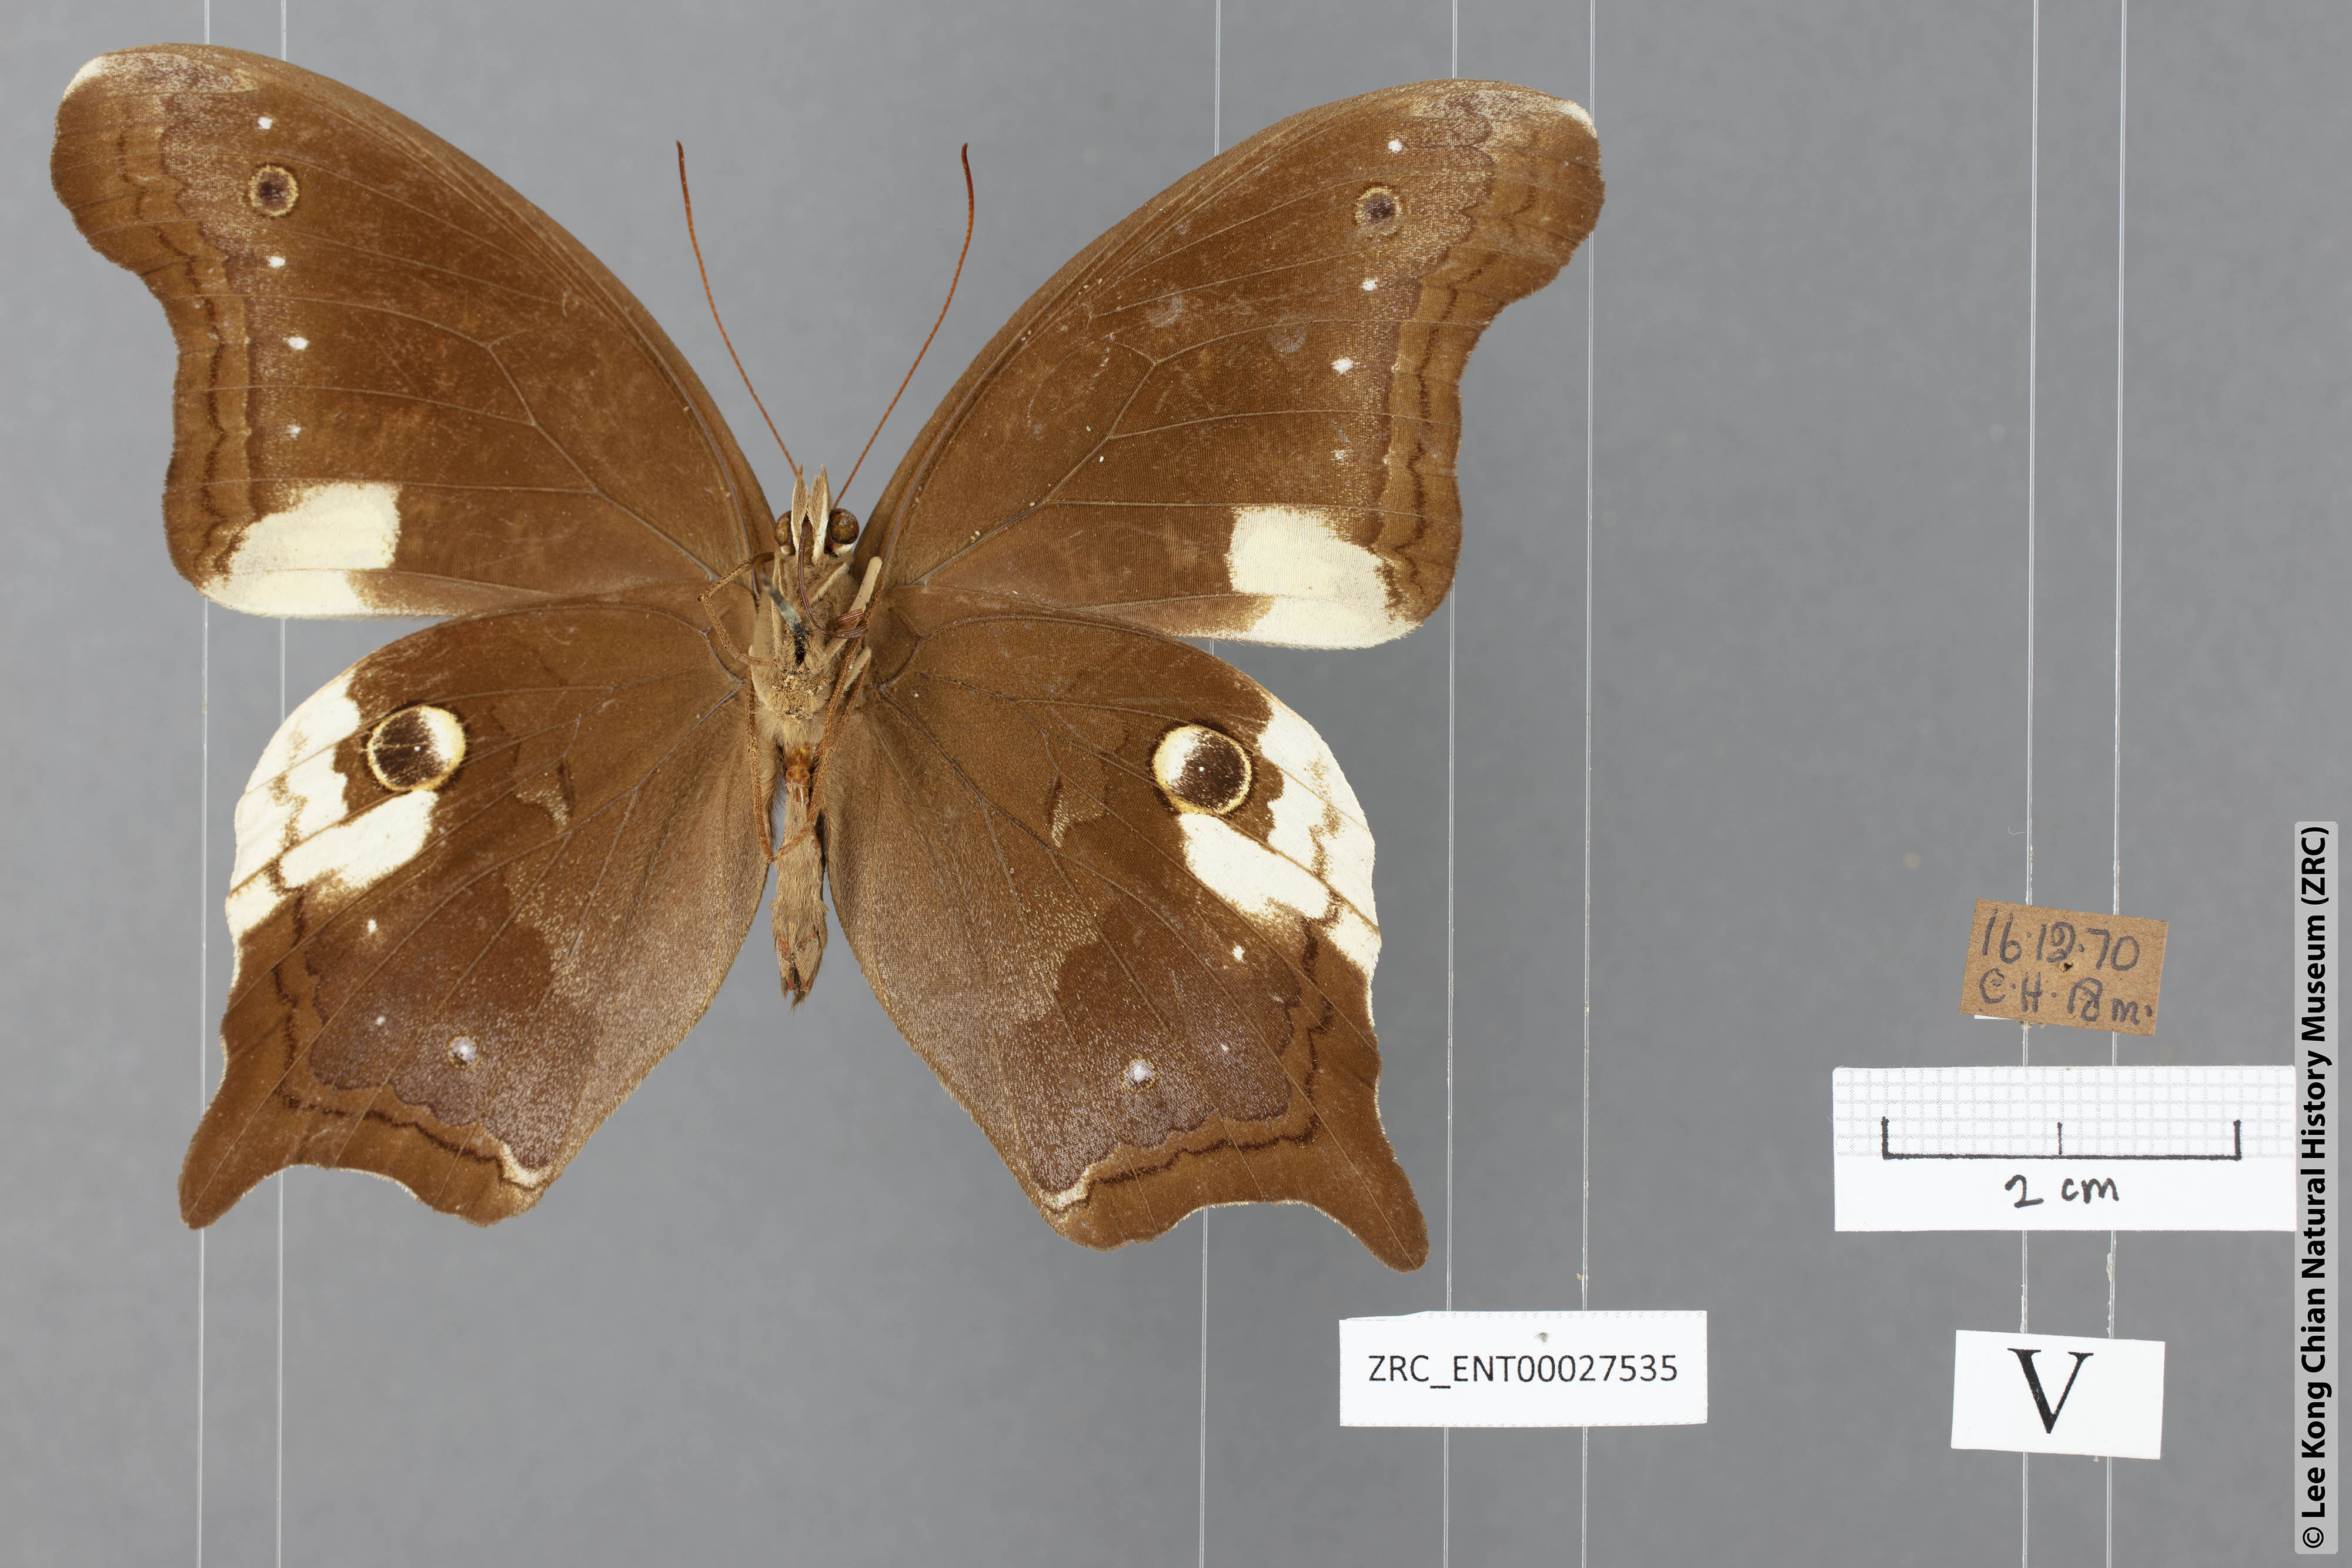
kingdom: Animalia
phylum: Arthropoda
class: Insecta
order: Lepidoptera
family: Nymphalidae
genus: Neorina
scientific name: Neorina lowii
